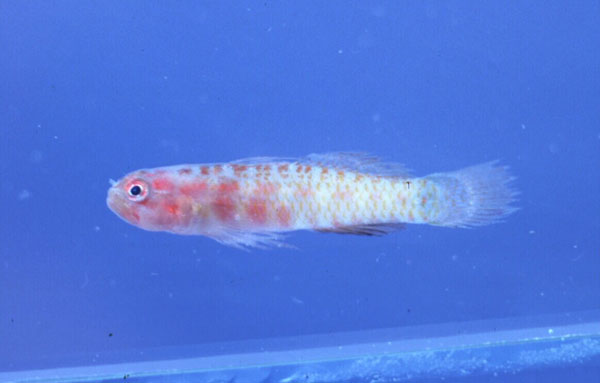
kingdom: Animalia
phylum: Chordata
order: Perciformes
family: Gobiidae
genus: Eviota
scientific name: Eviota
